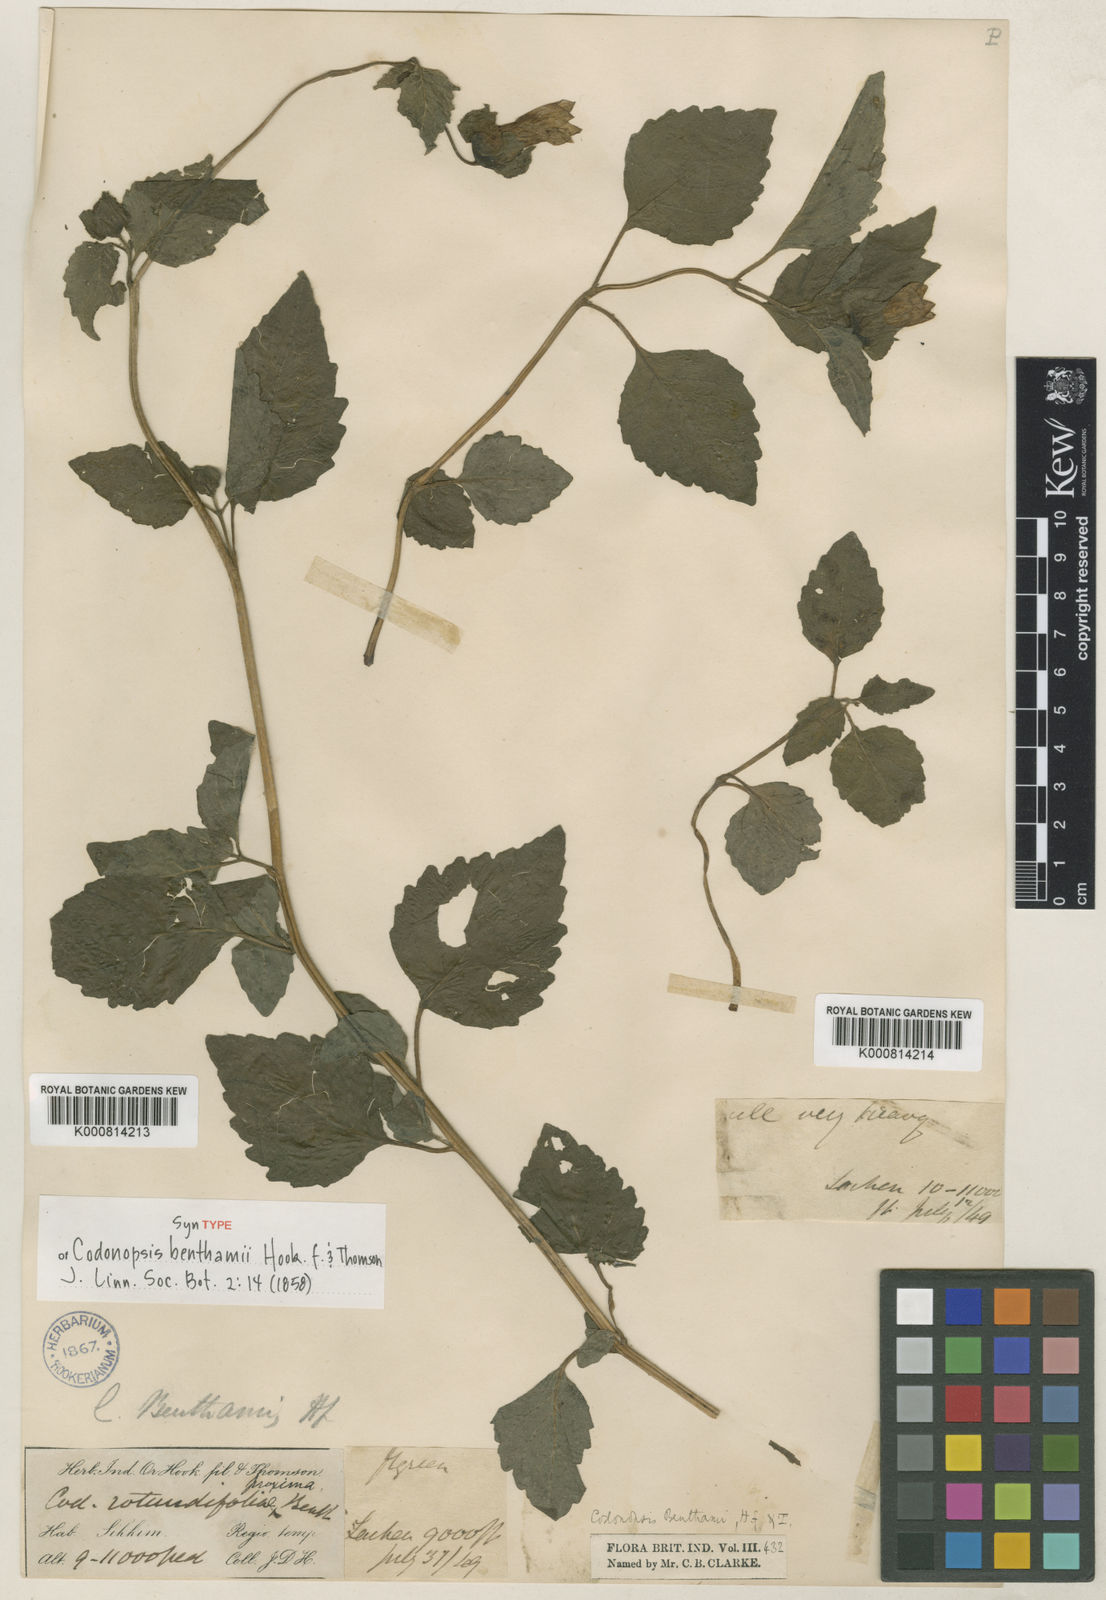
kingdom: Plantae
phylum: Tracheophyta
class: Magnoliopsida
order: Asterales
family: Campanulaceae
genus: Codonopsis
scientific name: Codonopsis benthamii
